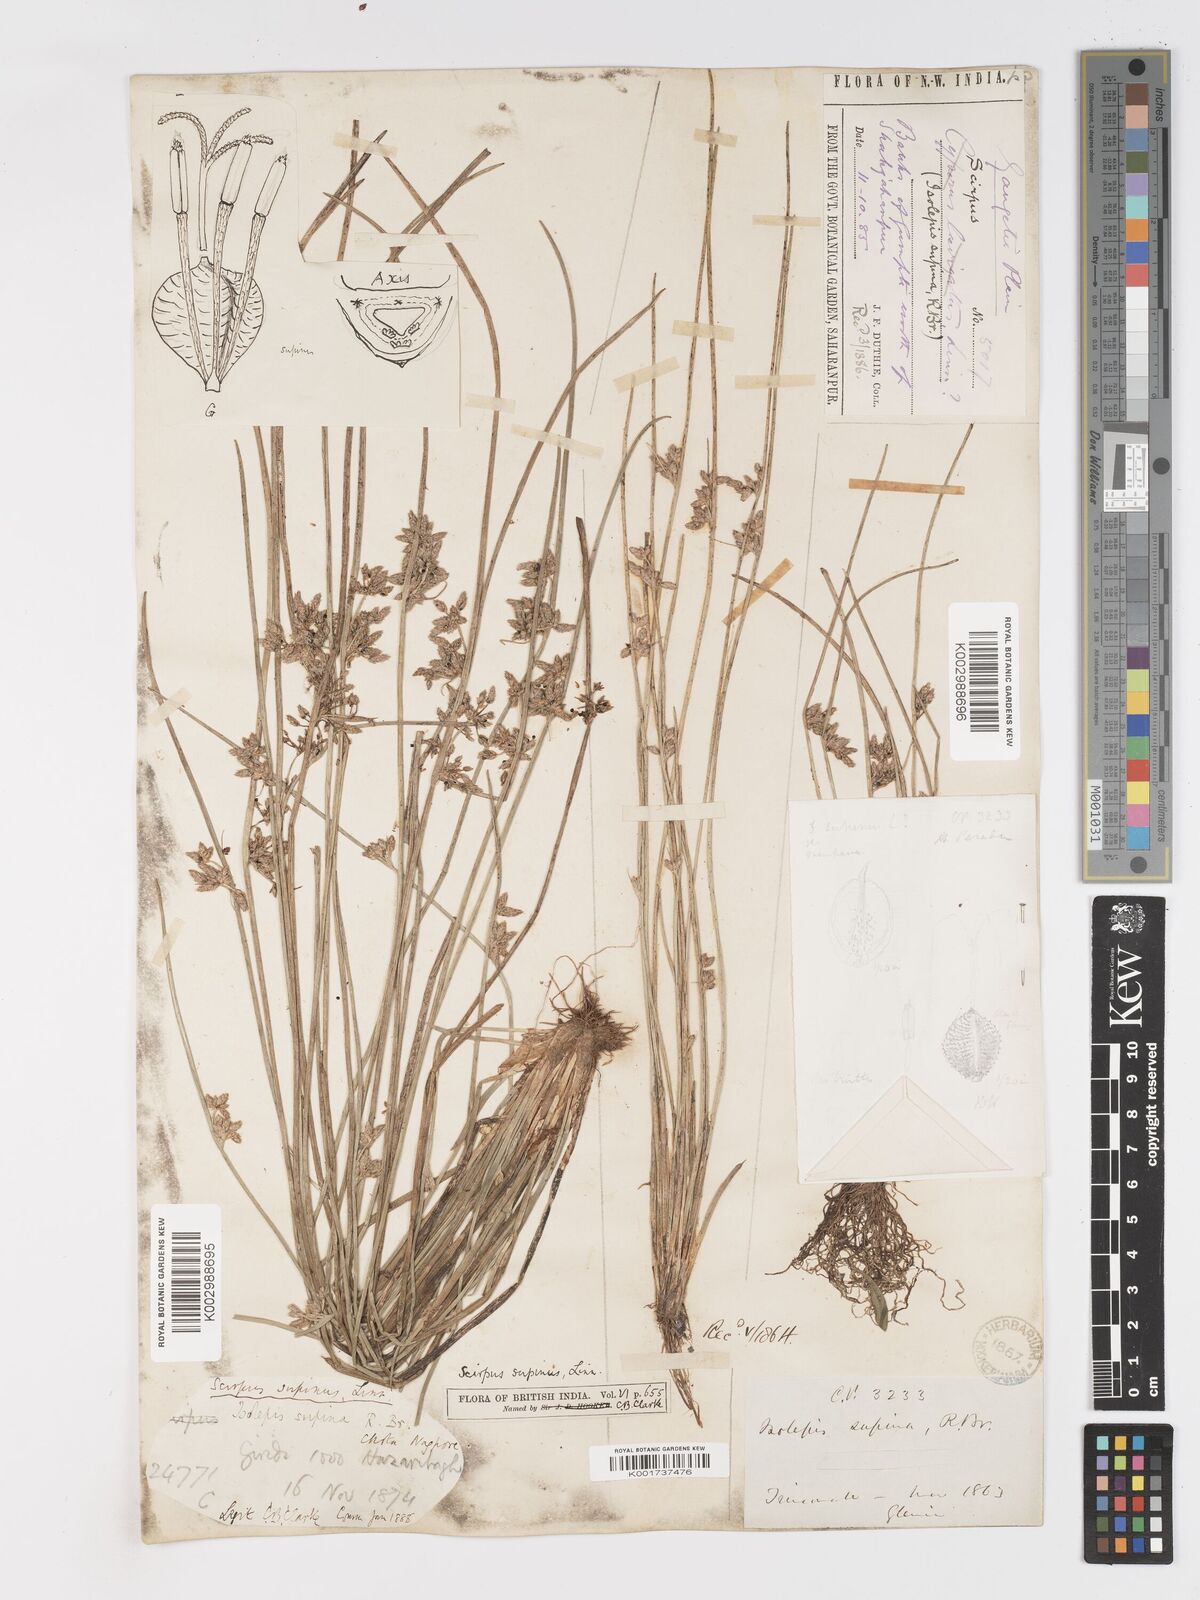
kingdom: Plantae
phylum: Tracheophyta
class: Liliopsida
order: Poales
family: Cyperaceae
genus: Schoenoplectiella
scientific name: Schoenoplectiella lateriflora
